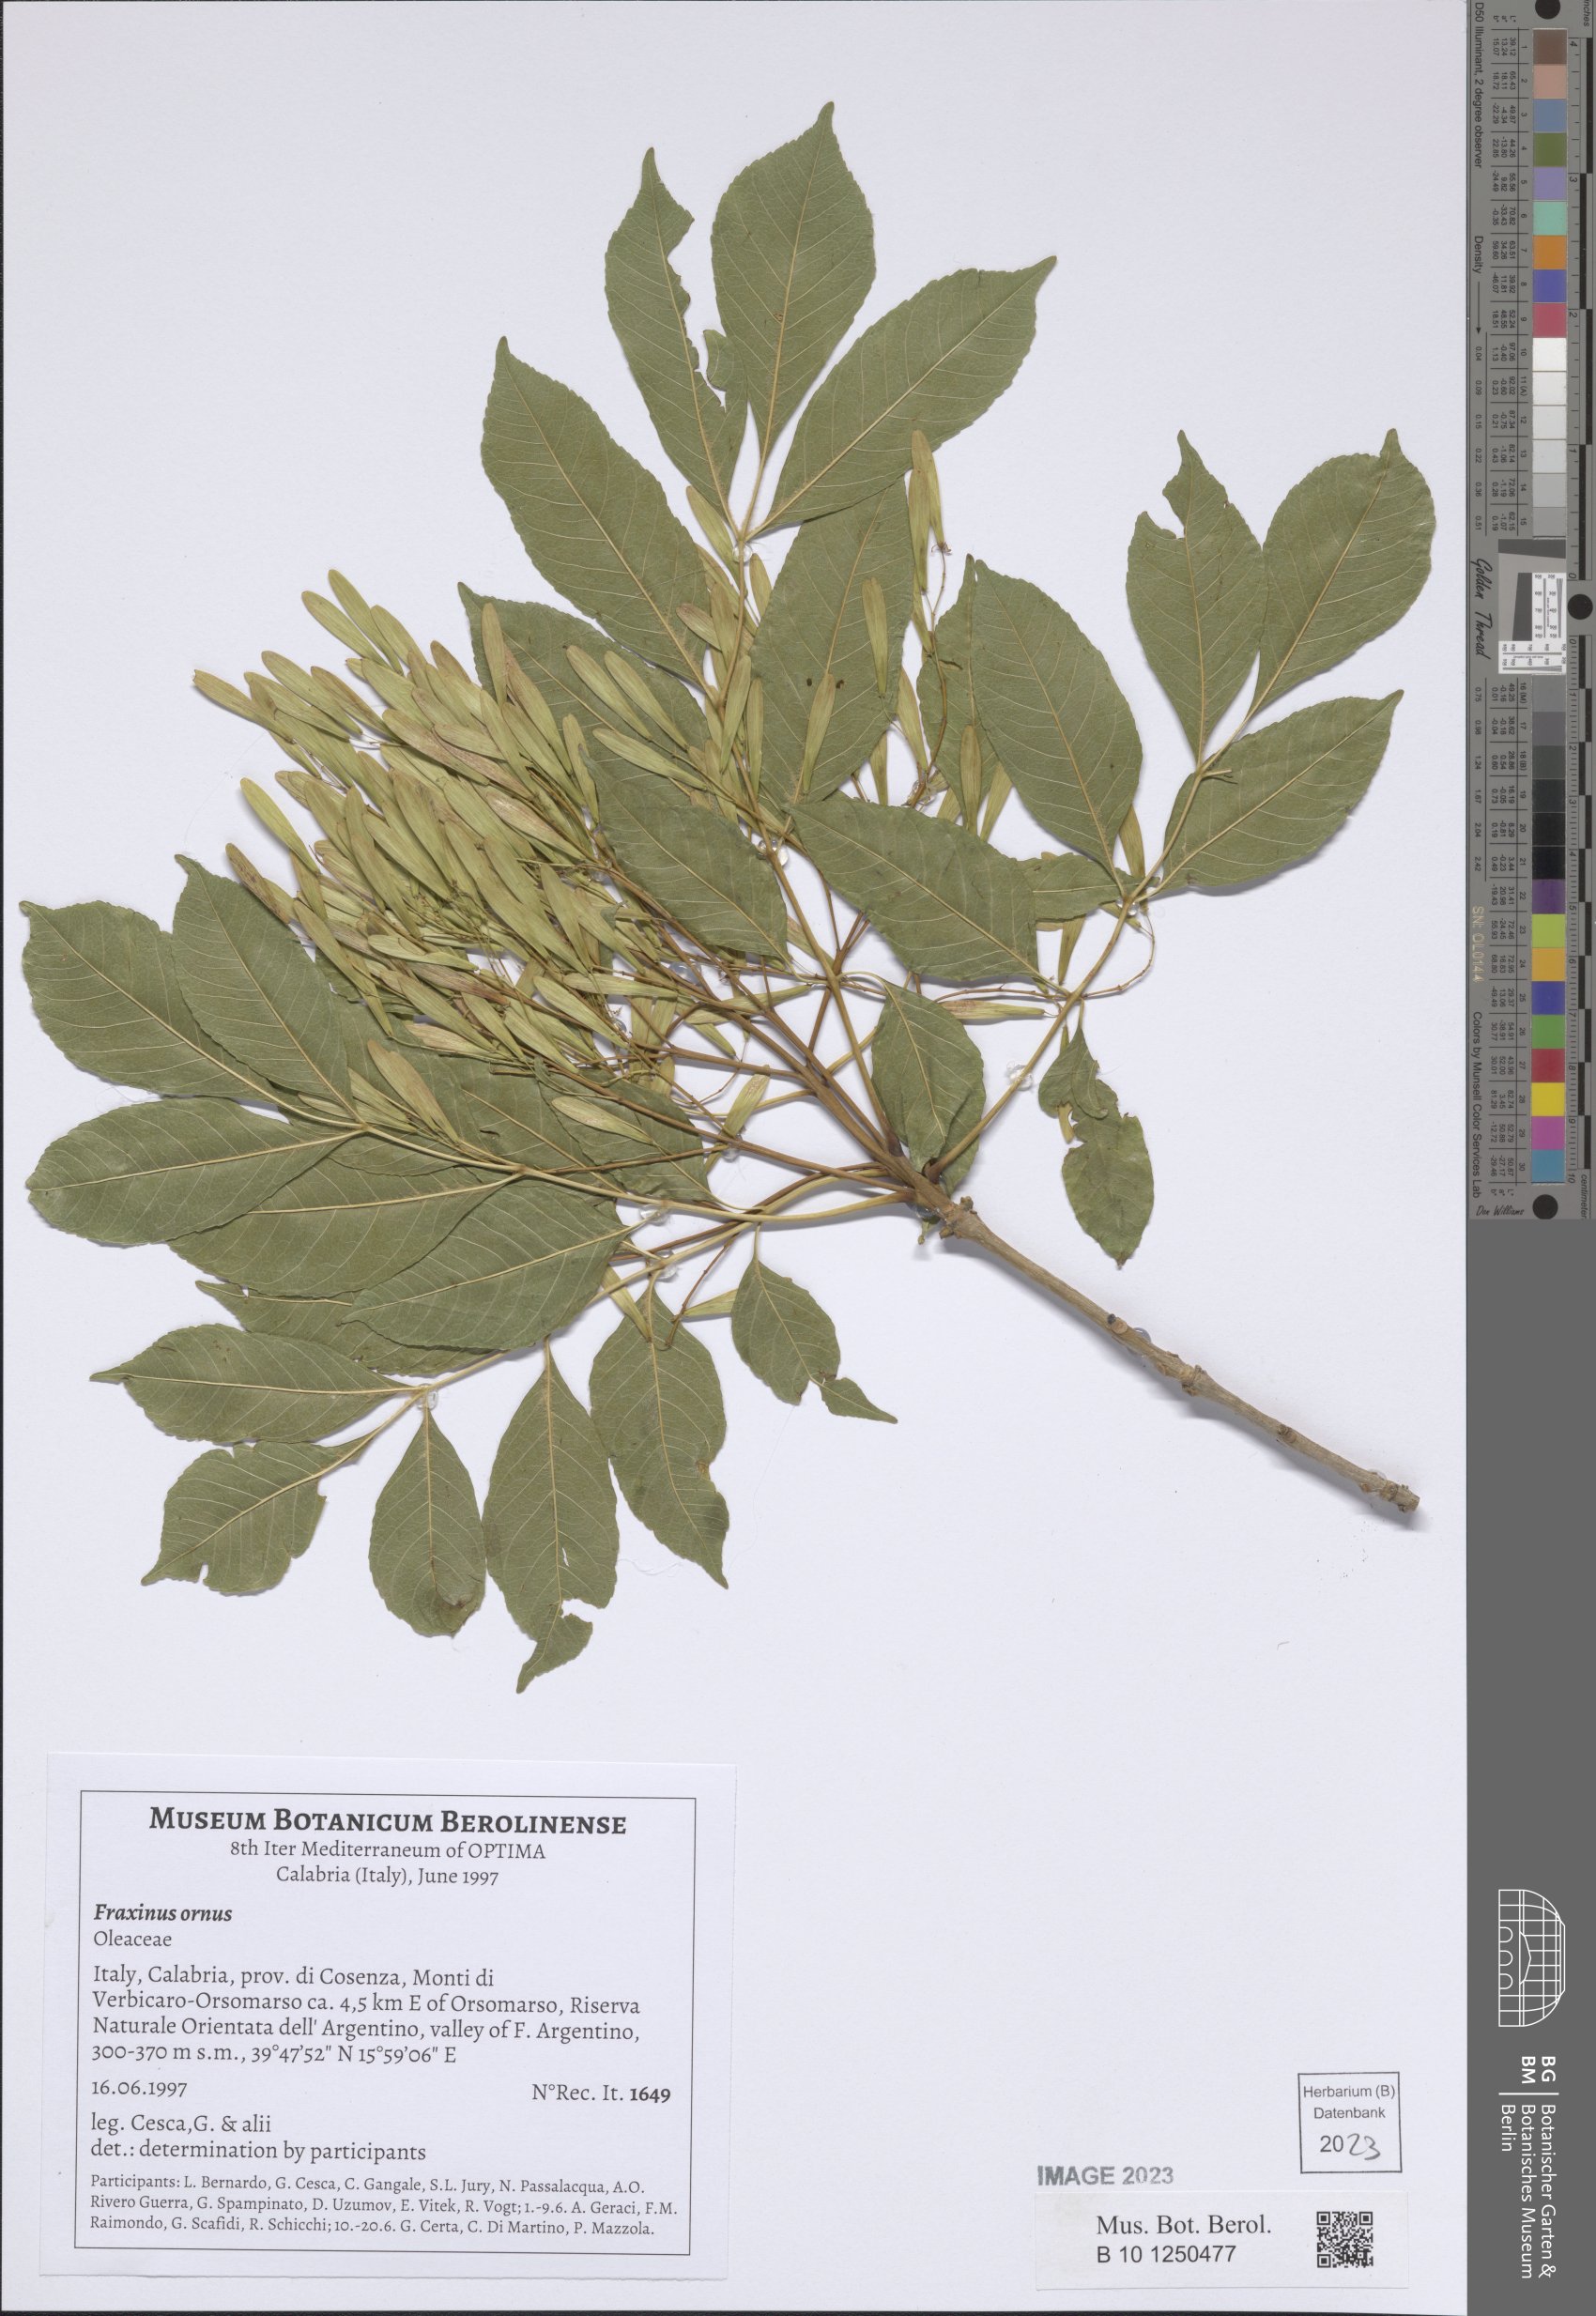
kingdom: Plantae
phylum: Tracheophyta
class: Magnoliopsida
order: Lamiales
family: Oleaceae
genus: Fraxinus
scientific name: Fraxinus ornus
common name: Manna ash
